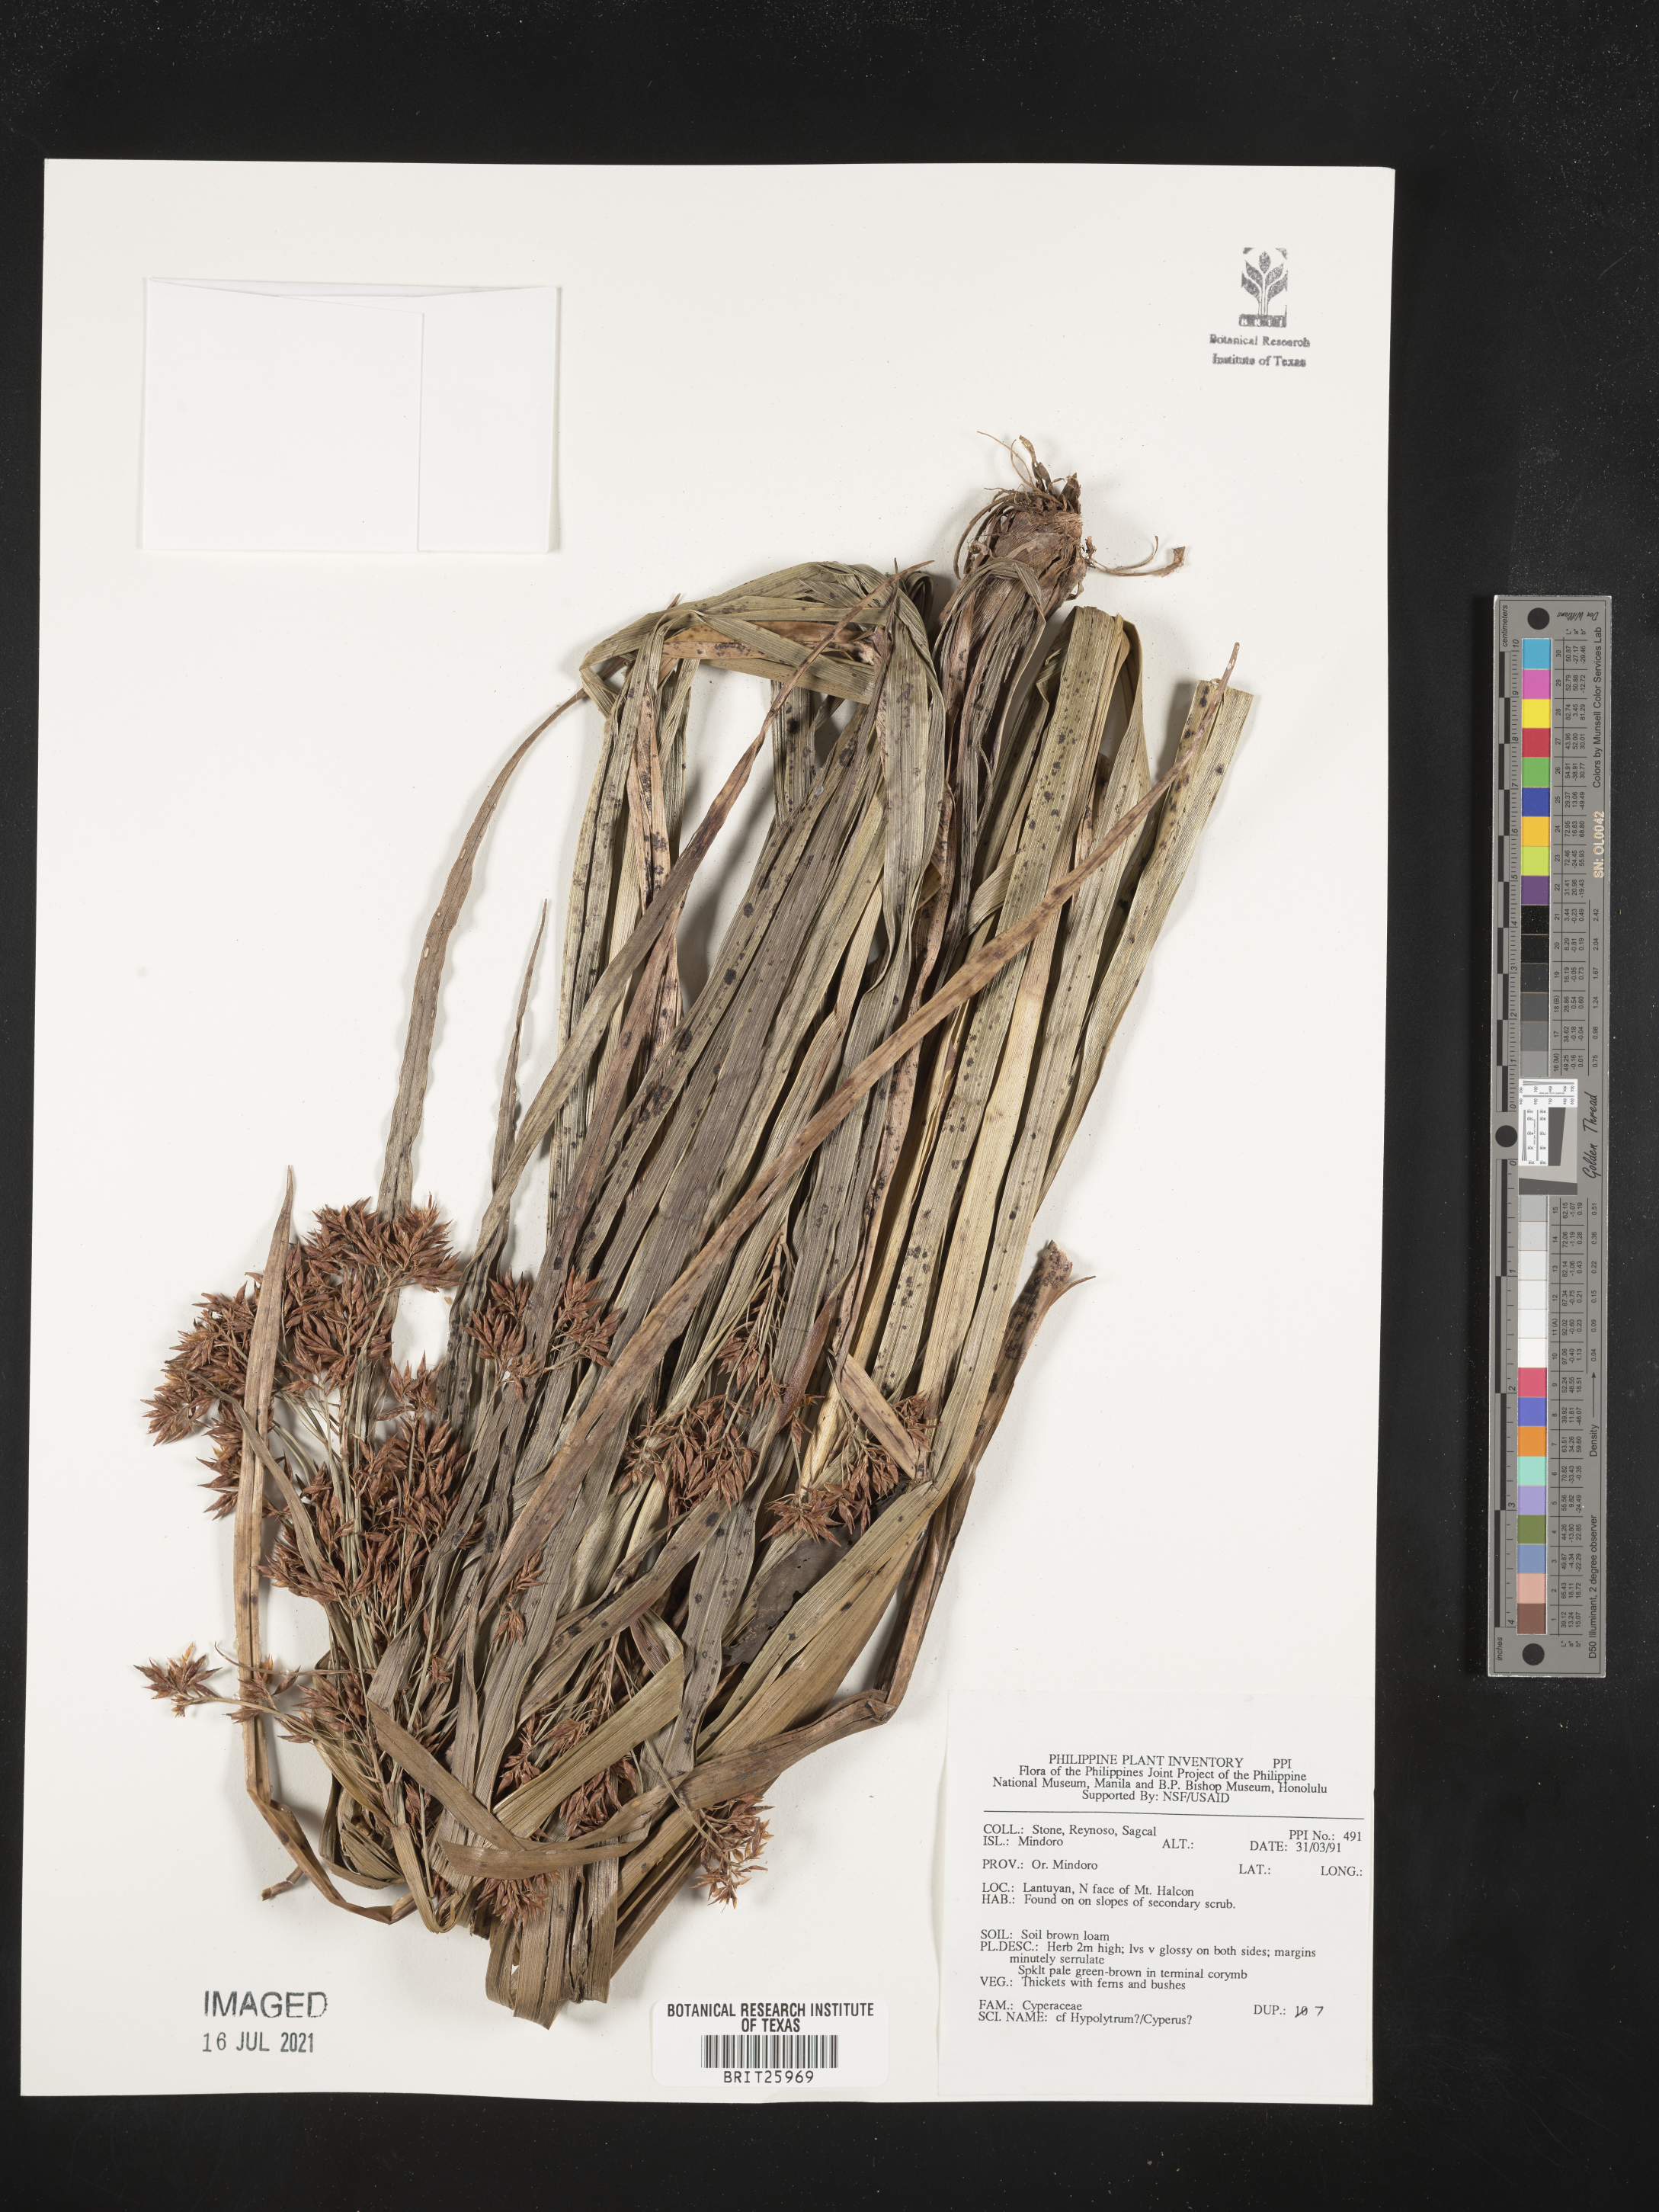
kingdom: Plantae
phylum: Tracheophyta
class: Liliopsida
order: Poales
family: Cyperaceae
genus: Hypolytrum
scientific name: Hypolytrum
